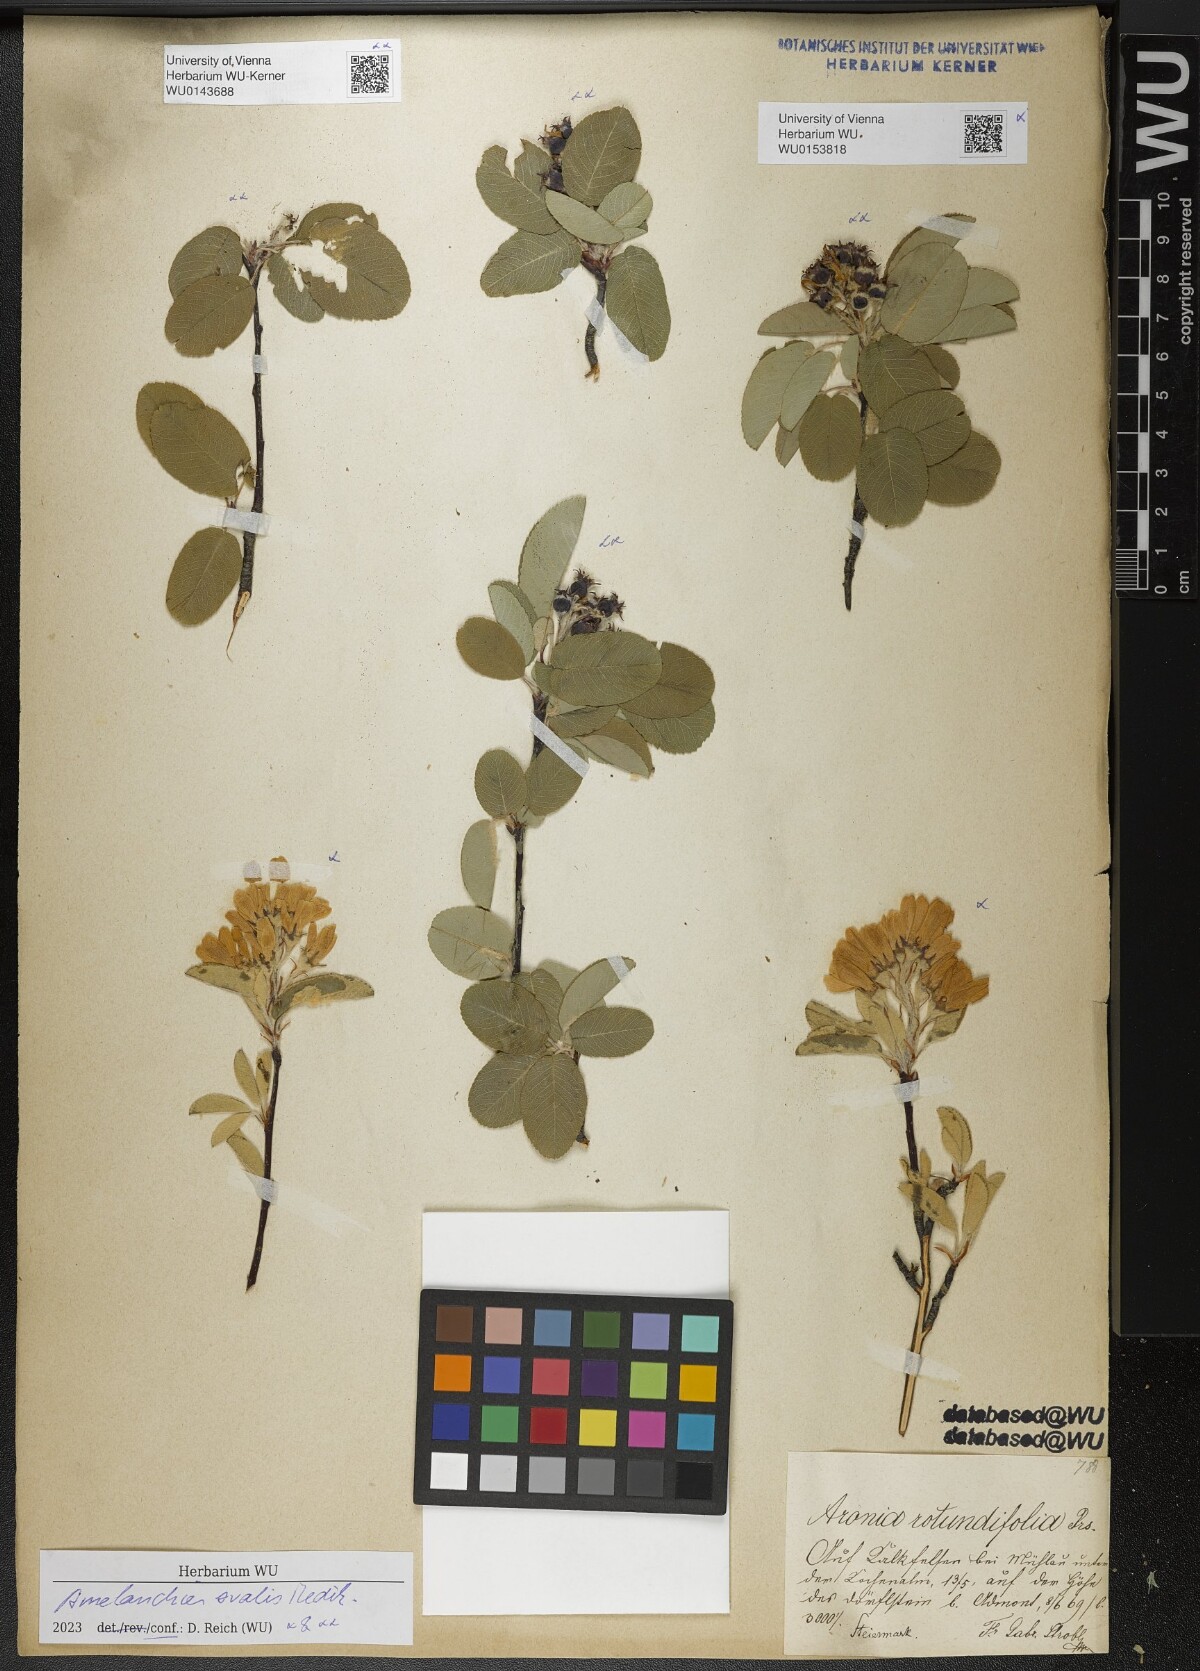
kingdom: Plantae
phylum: Tracheophyta
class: Magnoliopsida
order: Rosales
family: Rosaceae
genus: Amelanchier
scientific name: Amelanchier ovalis
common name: Serviceberry
